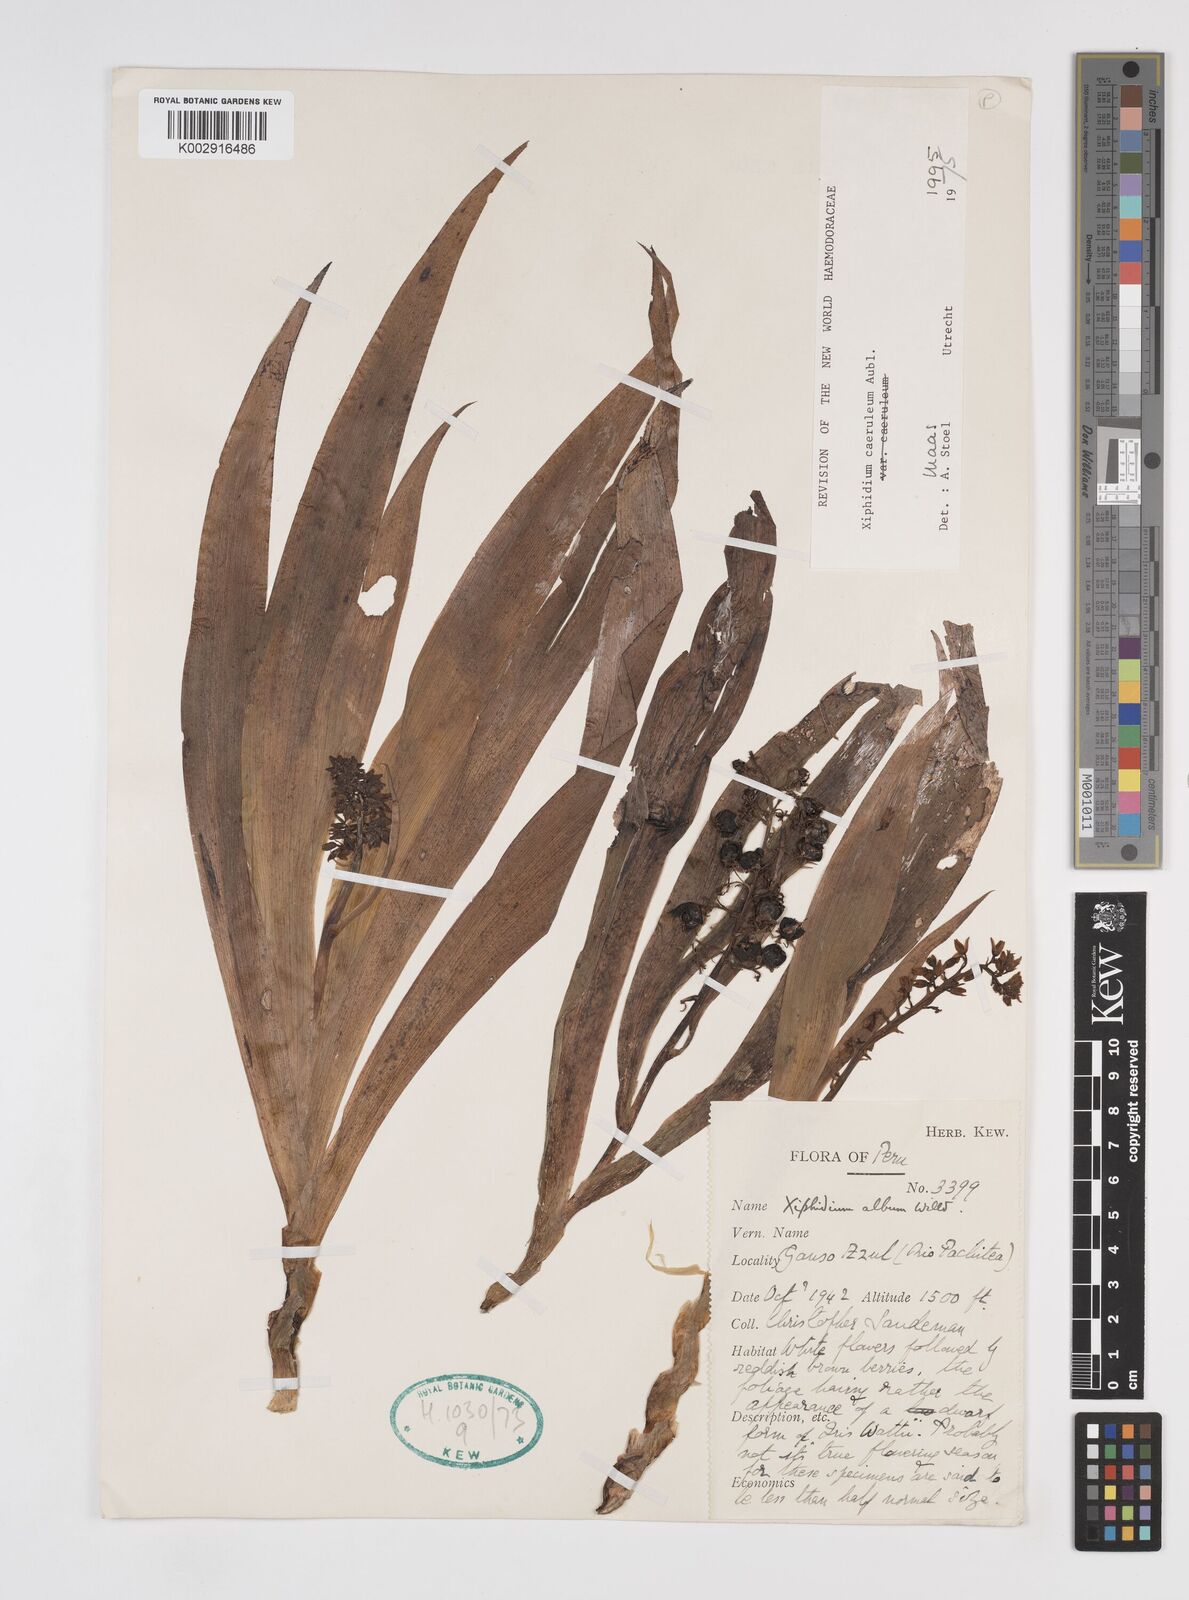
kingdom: Plantae
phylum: Tracheophyta
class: Liliopsida
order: Commelinales
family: Haemodoraceae
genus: Xiphidium
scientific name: Xiphidium caeruleum
